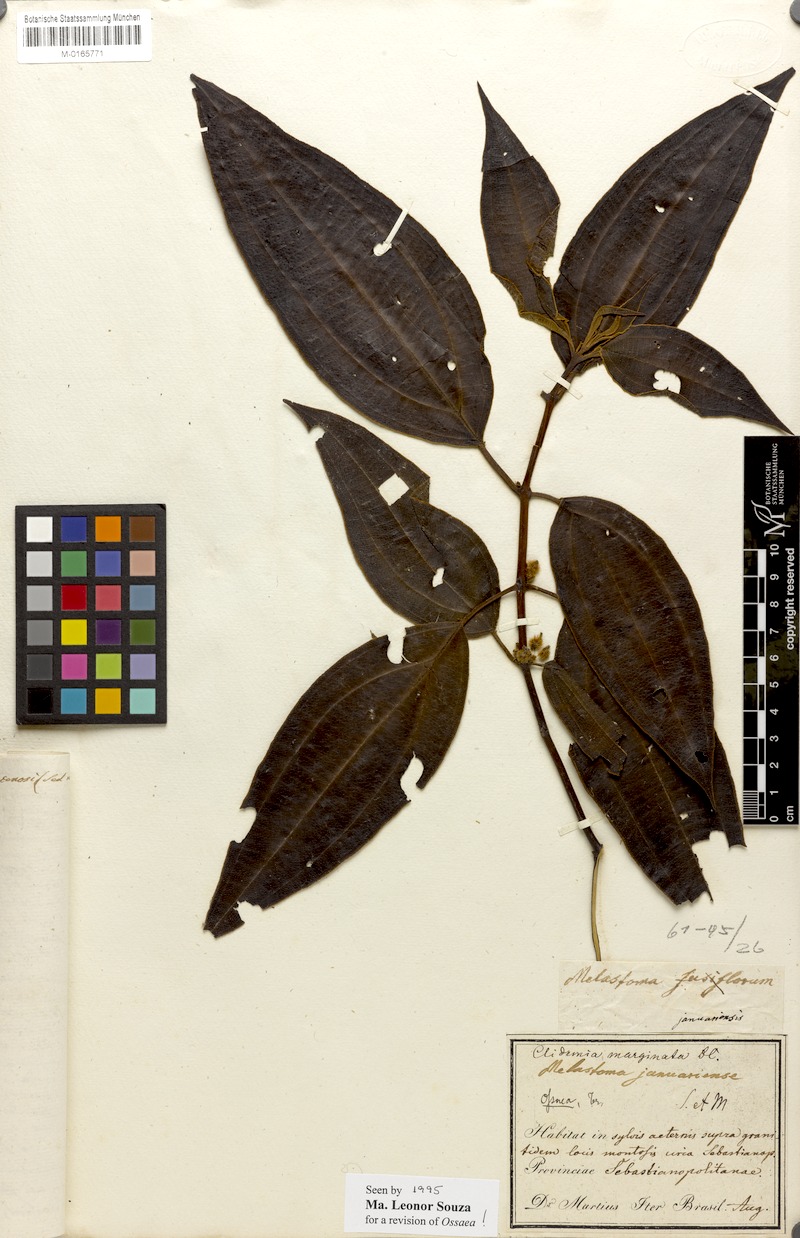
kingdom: Plantae
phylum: Tracheophyta
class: Magnoliopsida
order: Myrtales
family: Melastomataceae
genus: Miconia
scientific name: Miconia leamarginata
